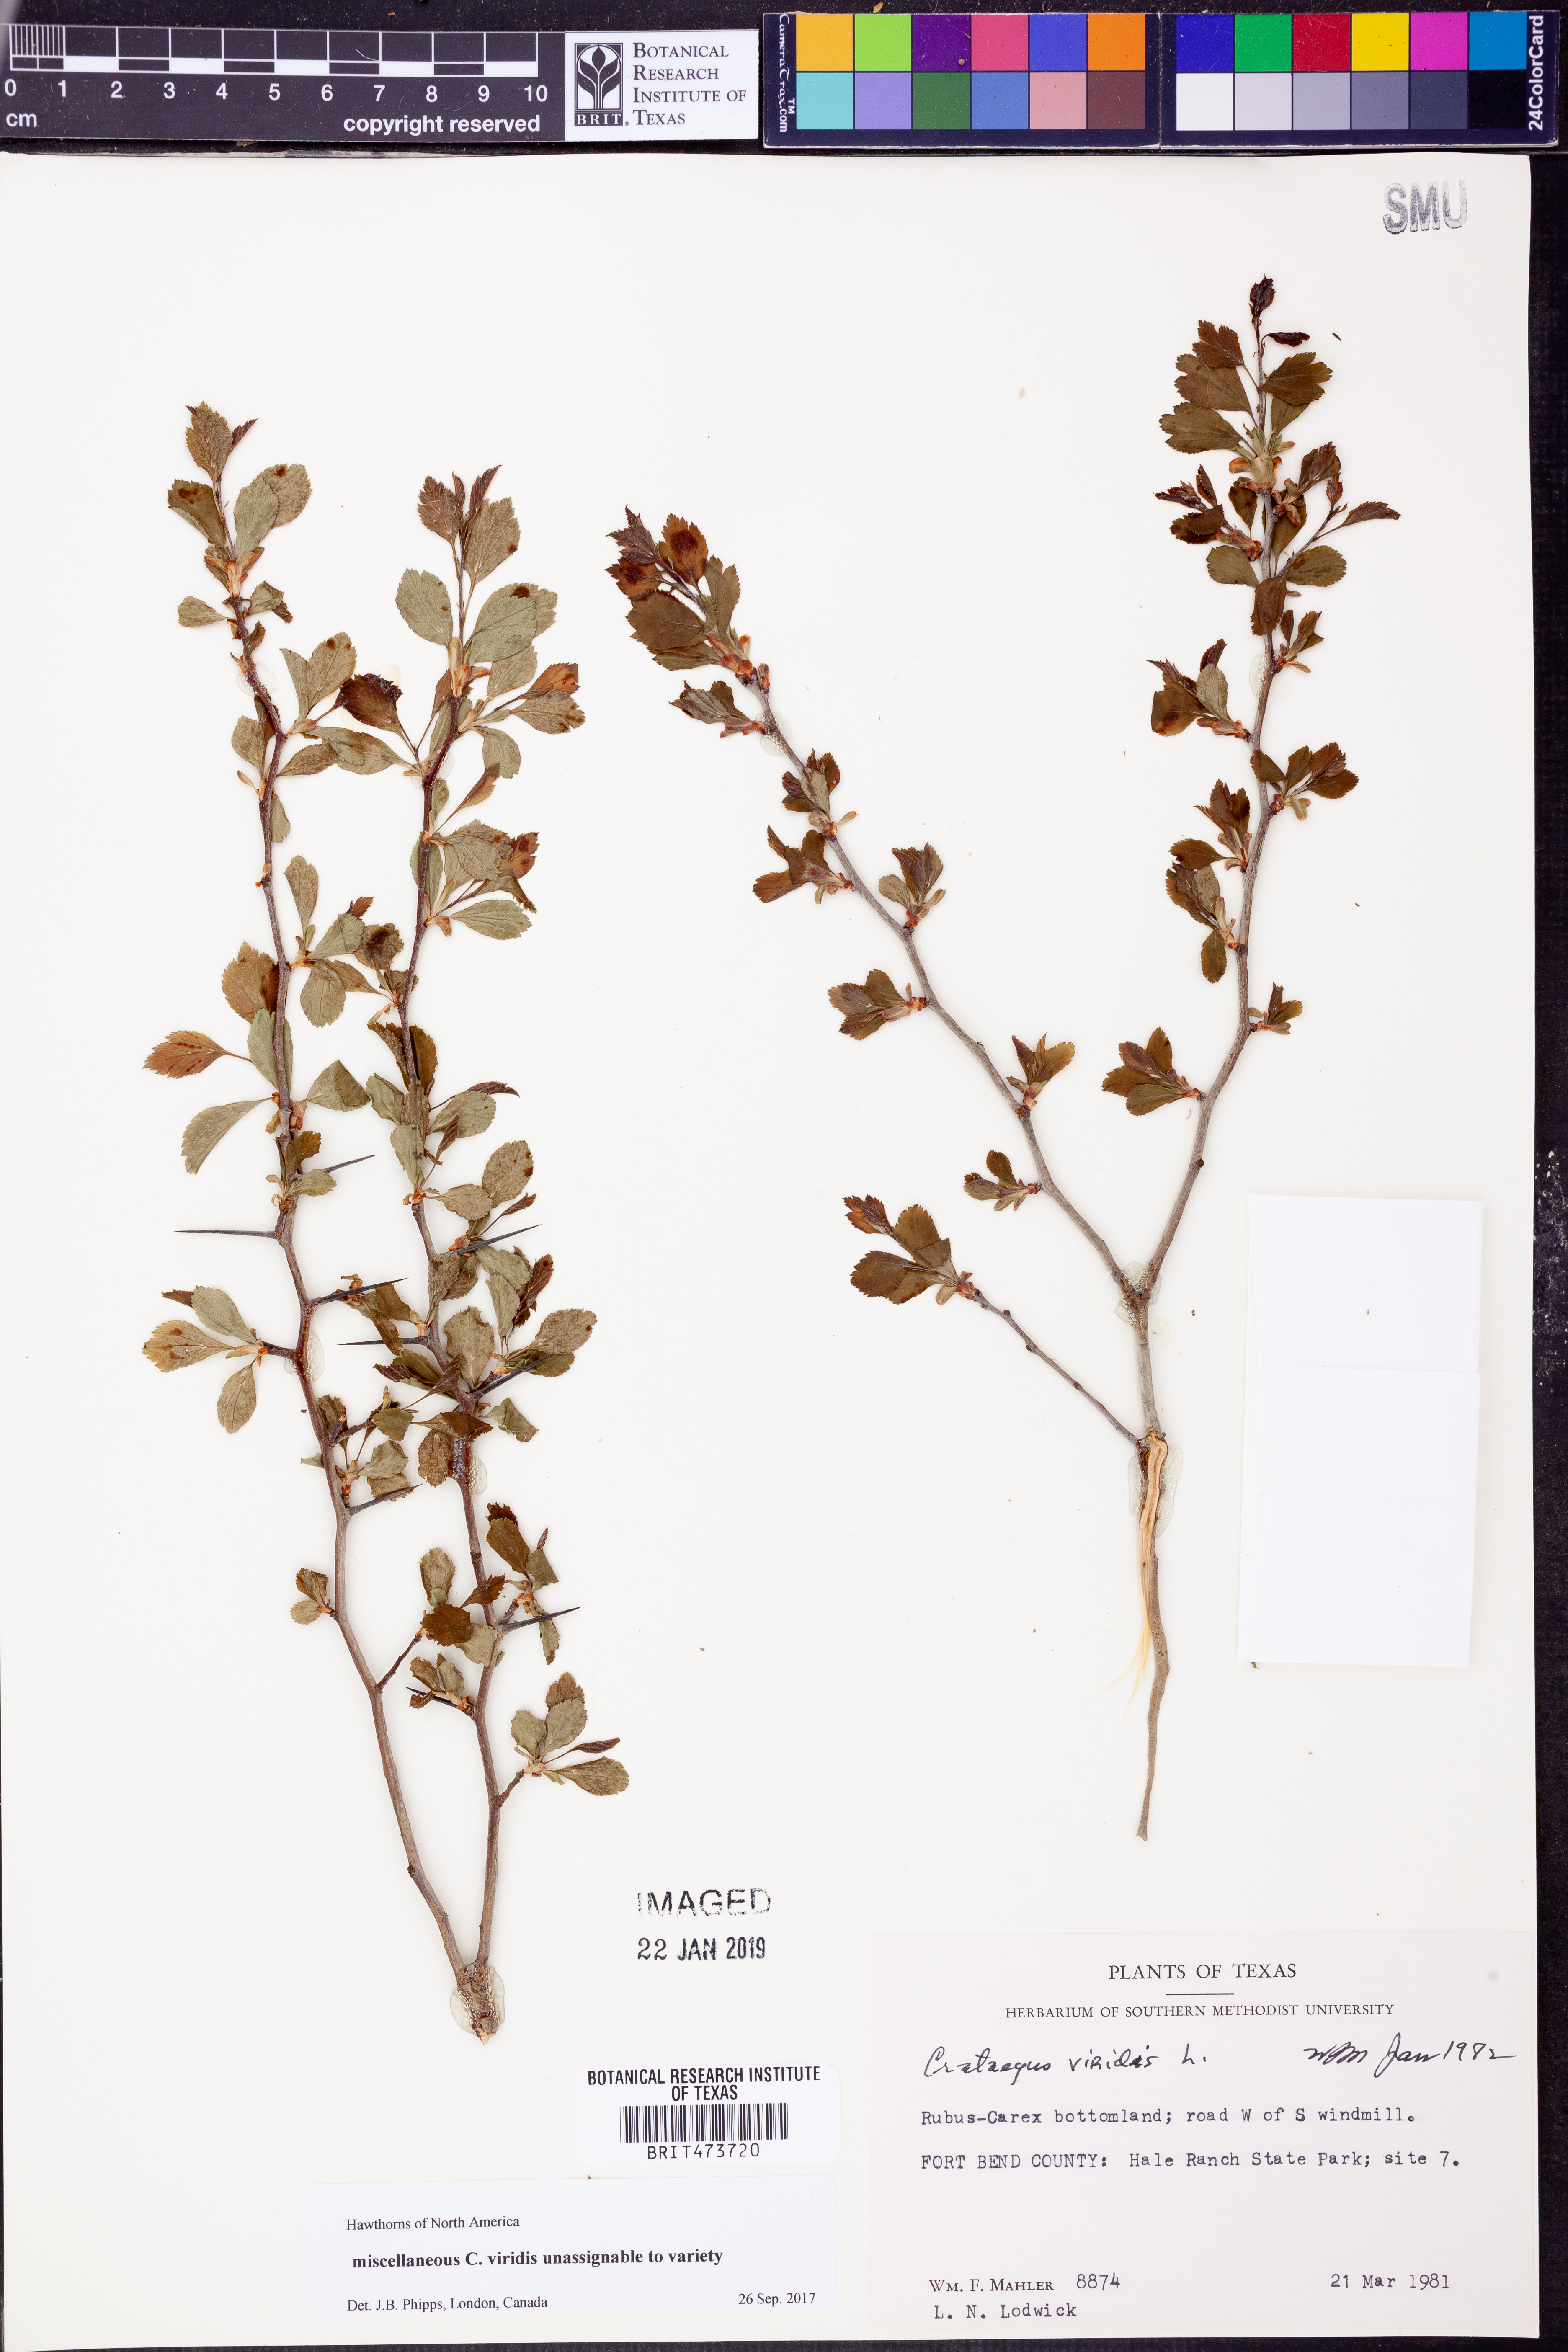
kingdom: Plantae
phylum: Tracheophyta
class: Magnoliopsida
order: Rosales
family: Rosaceae
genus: Crataegus
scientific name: Crataegus viridis
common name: Southernthorn
